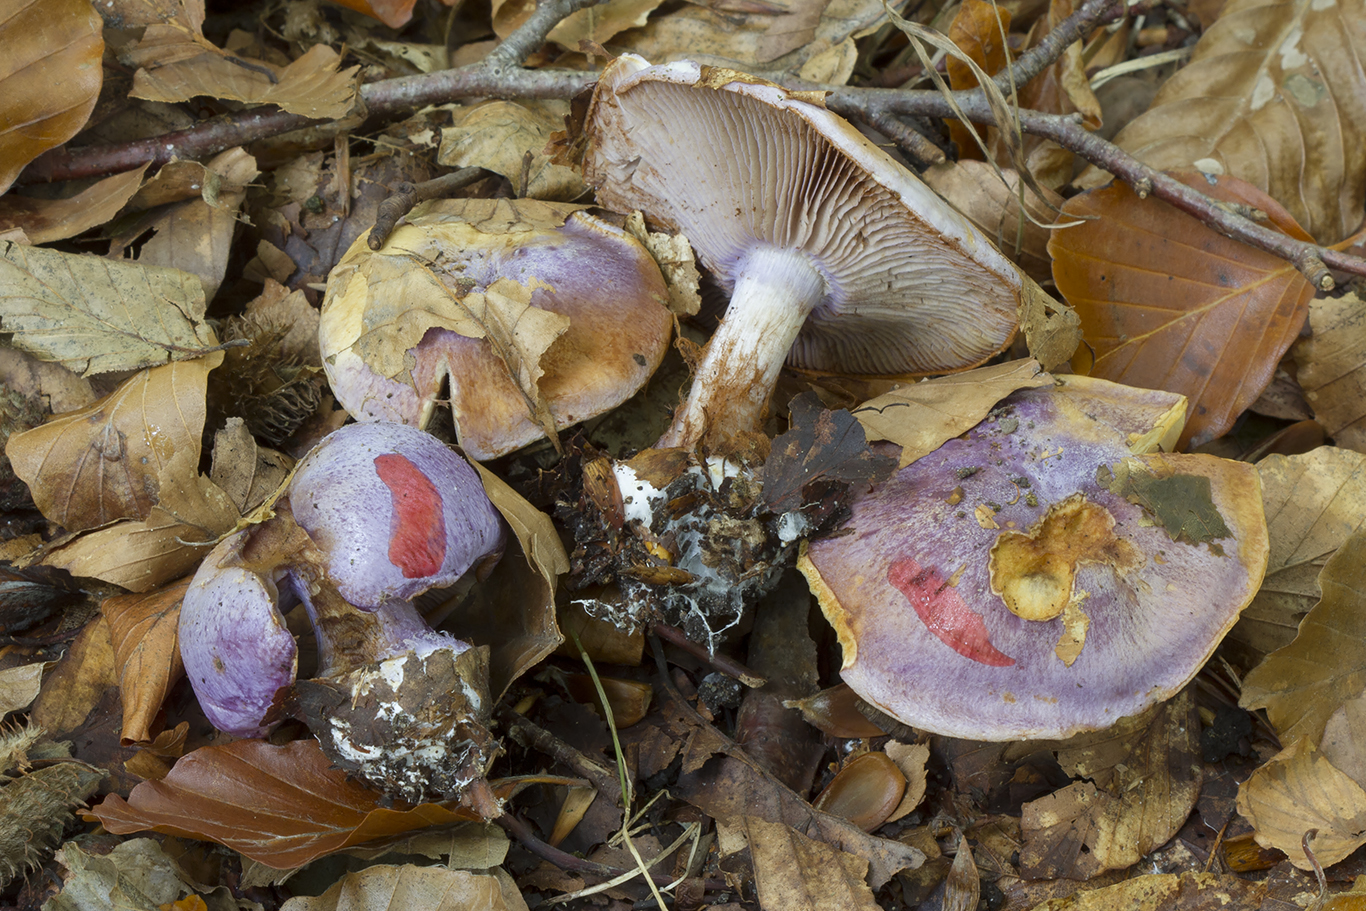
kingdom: Fungi
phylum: Basidiomycota
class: Agaricomycetes
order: Agaricales
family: Cortinariaceae
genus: Calonarius
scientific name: Calonarius sodagnitus
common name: violblå slørhat
